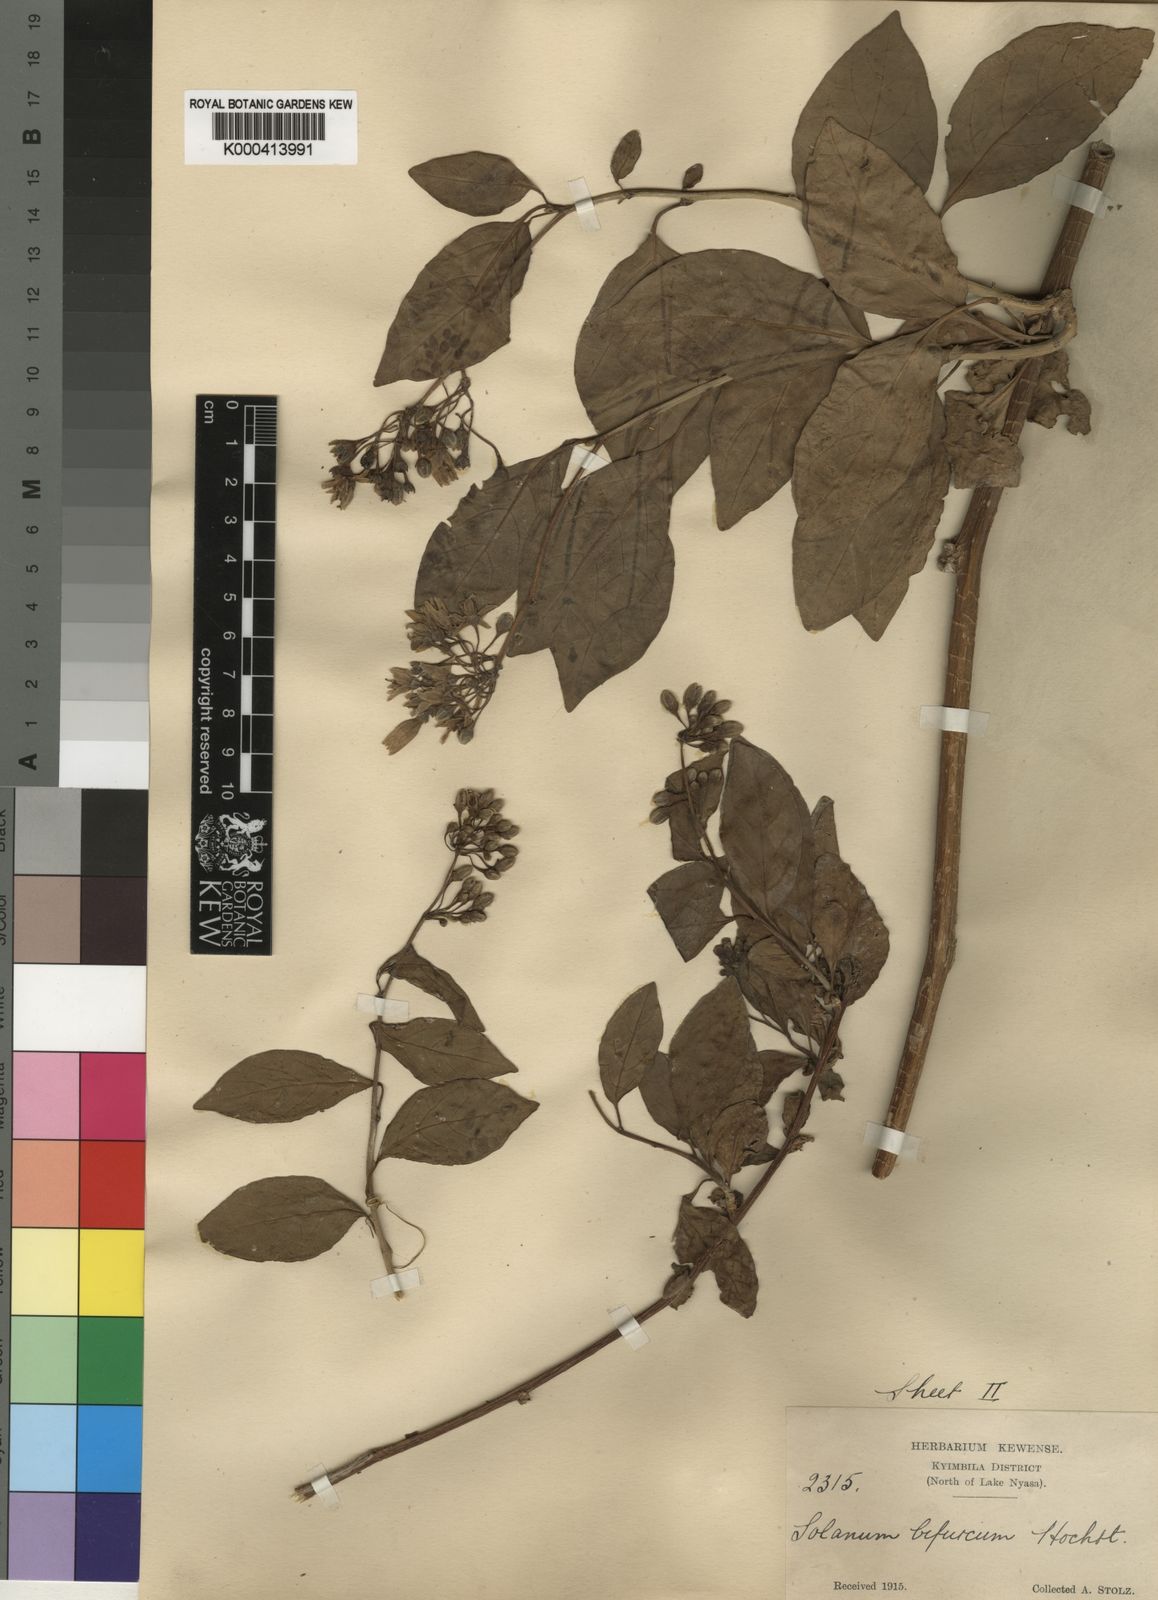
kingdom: Plantae
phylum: Tracheophyta
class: Magnoliopsida
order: Solanales
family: Solanaceae
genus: Solanum
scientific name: Solanum terminale
